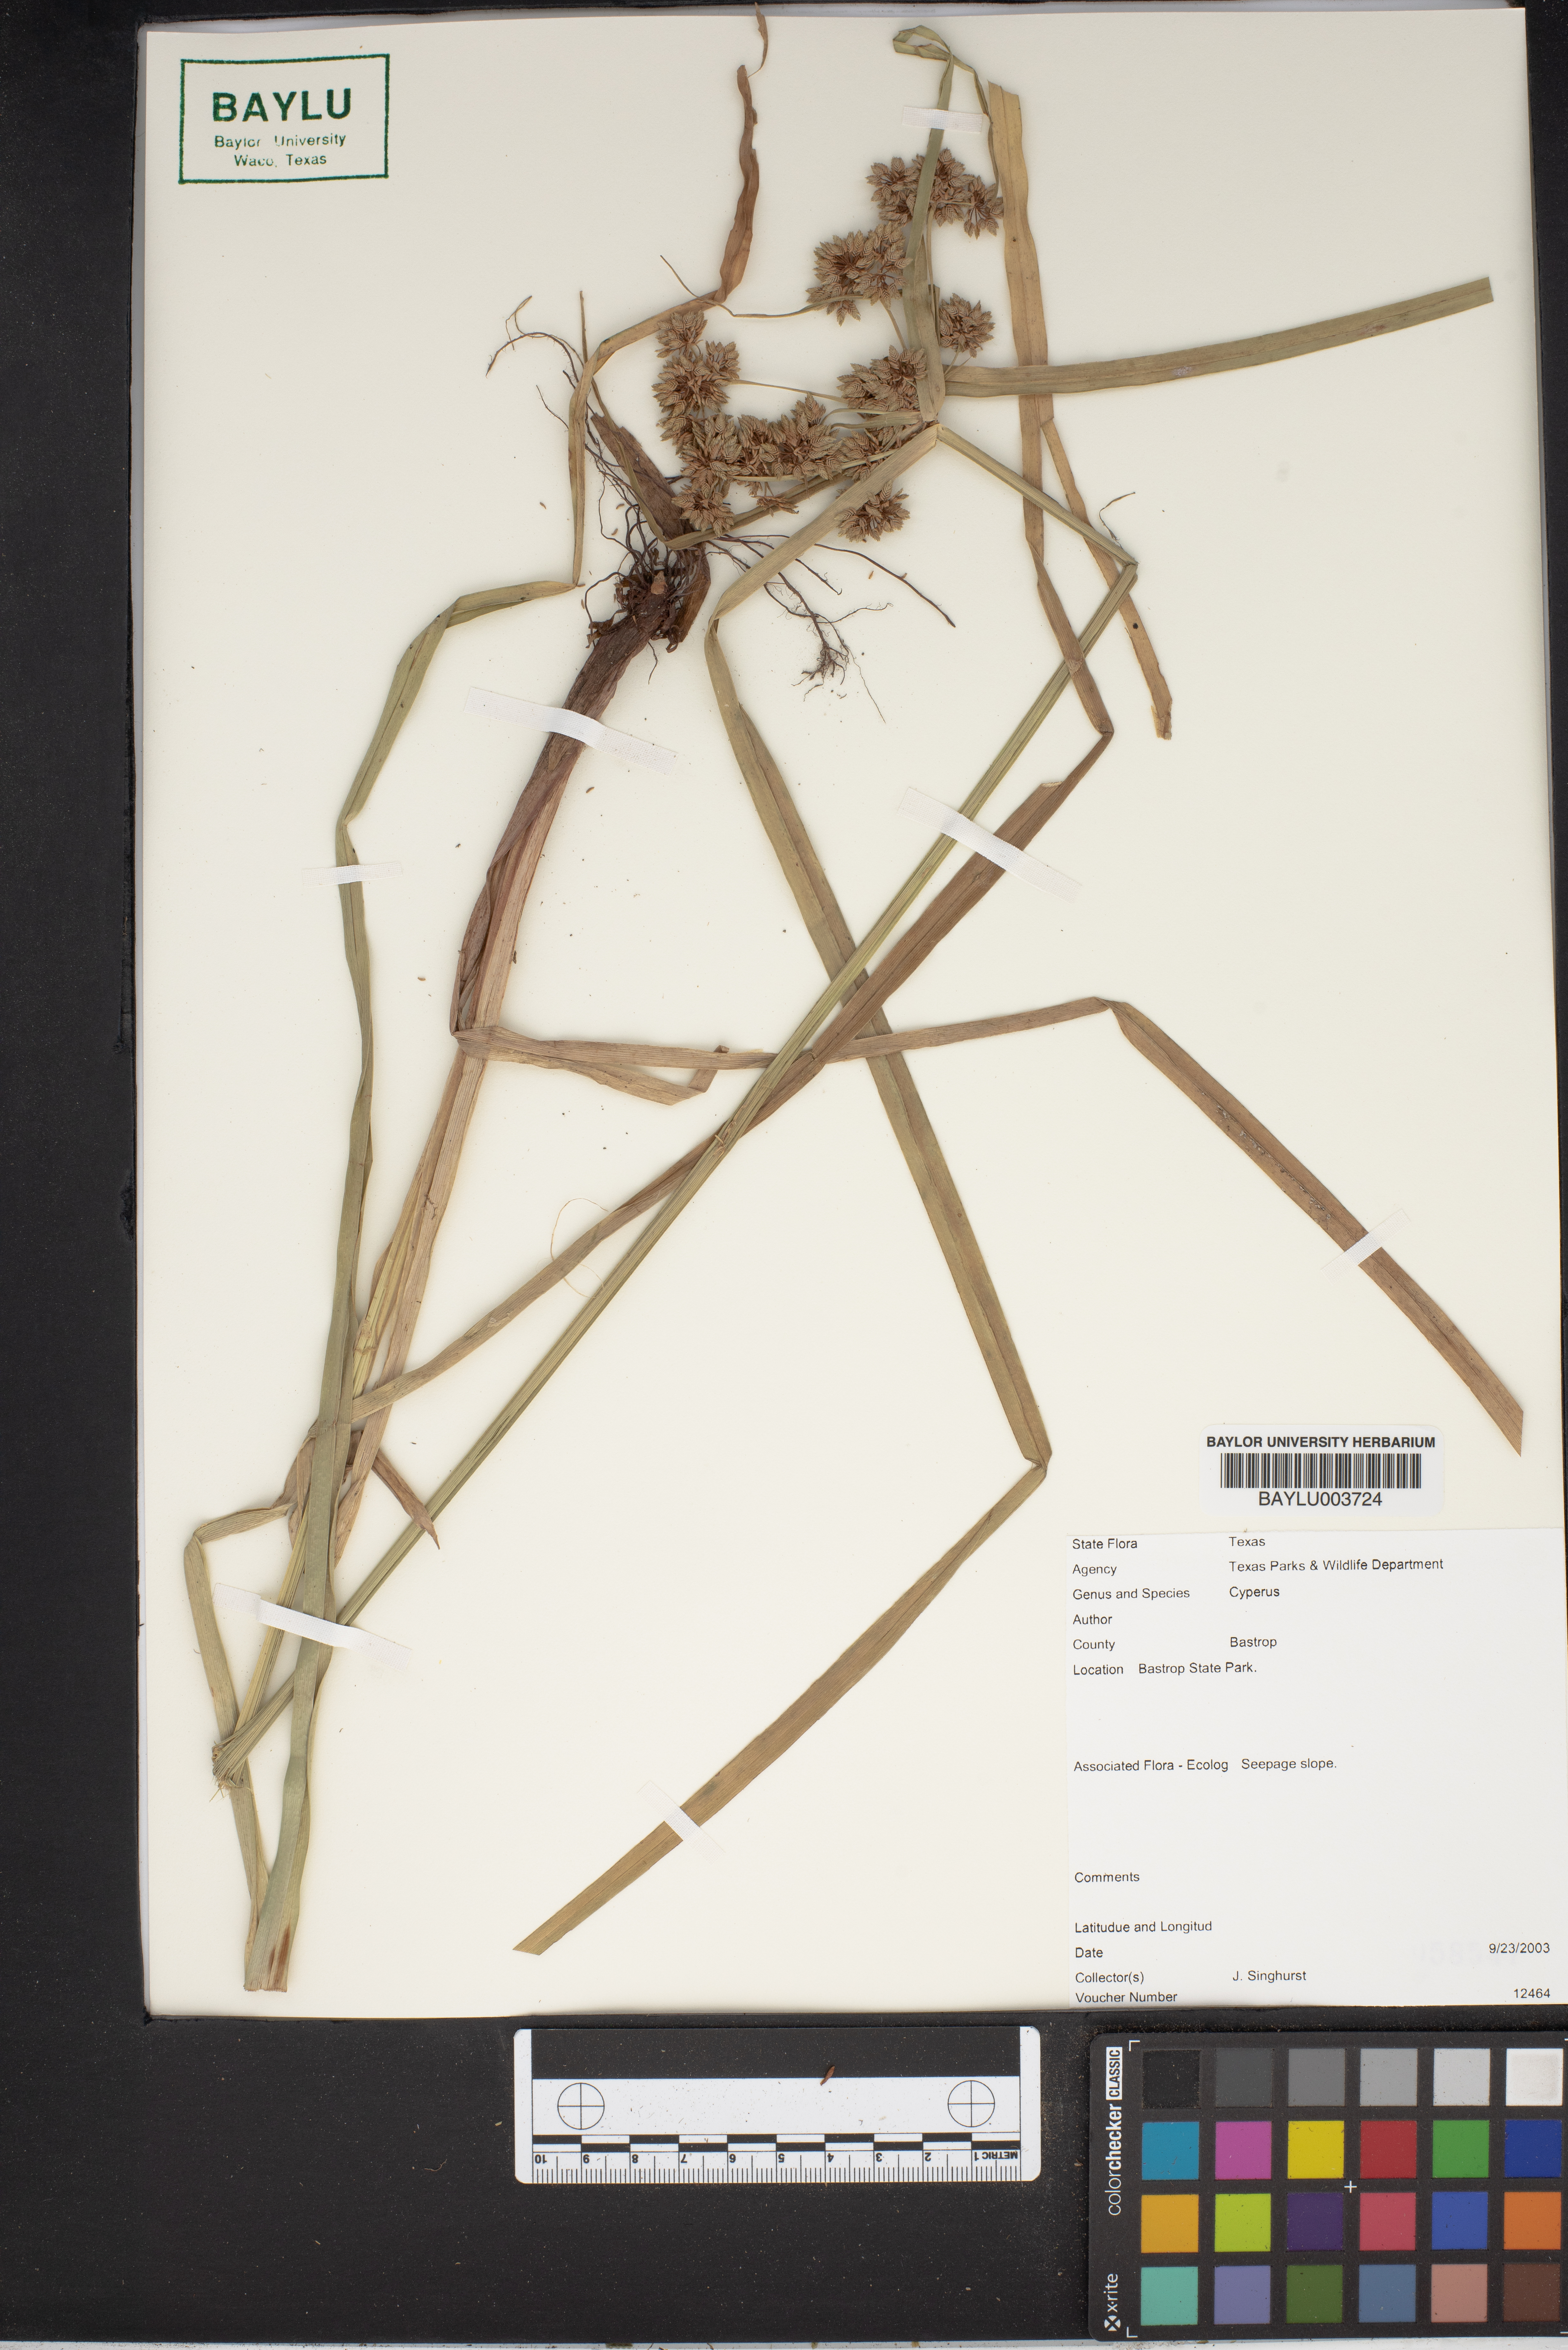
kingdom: Plantae
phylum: Tracheophyta
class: Liliopsida
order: Poales
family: Cyperaceae
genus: Cyperus
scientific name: Cyperus
